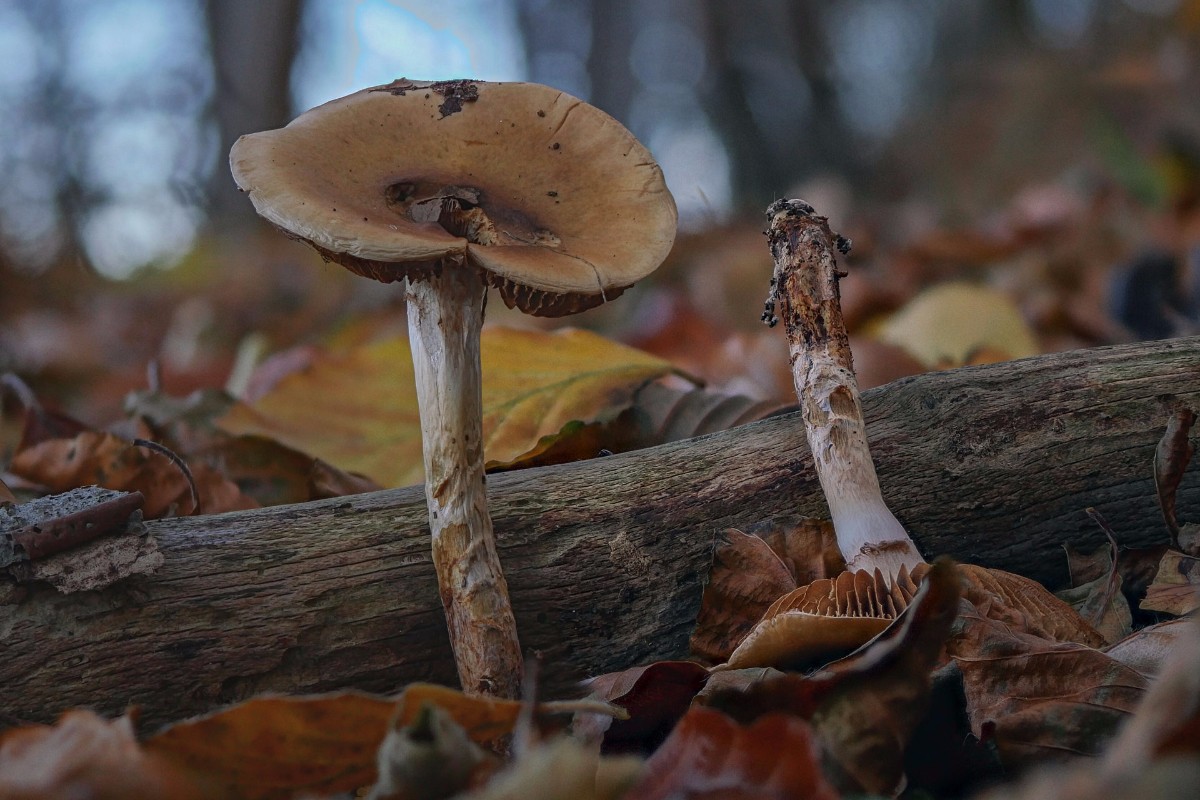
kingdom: Fungi
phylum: Basidiomycota
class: Agaricomycetes
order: Agaricales
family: Cortinariaceae
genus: Cortinarius
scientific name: Cortinarius trivialis
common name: brunslimet slørhat
